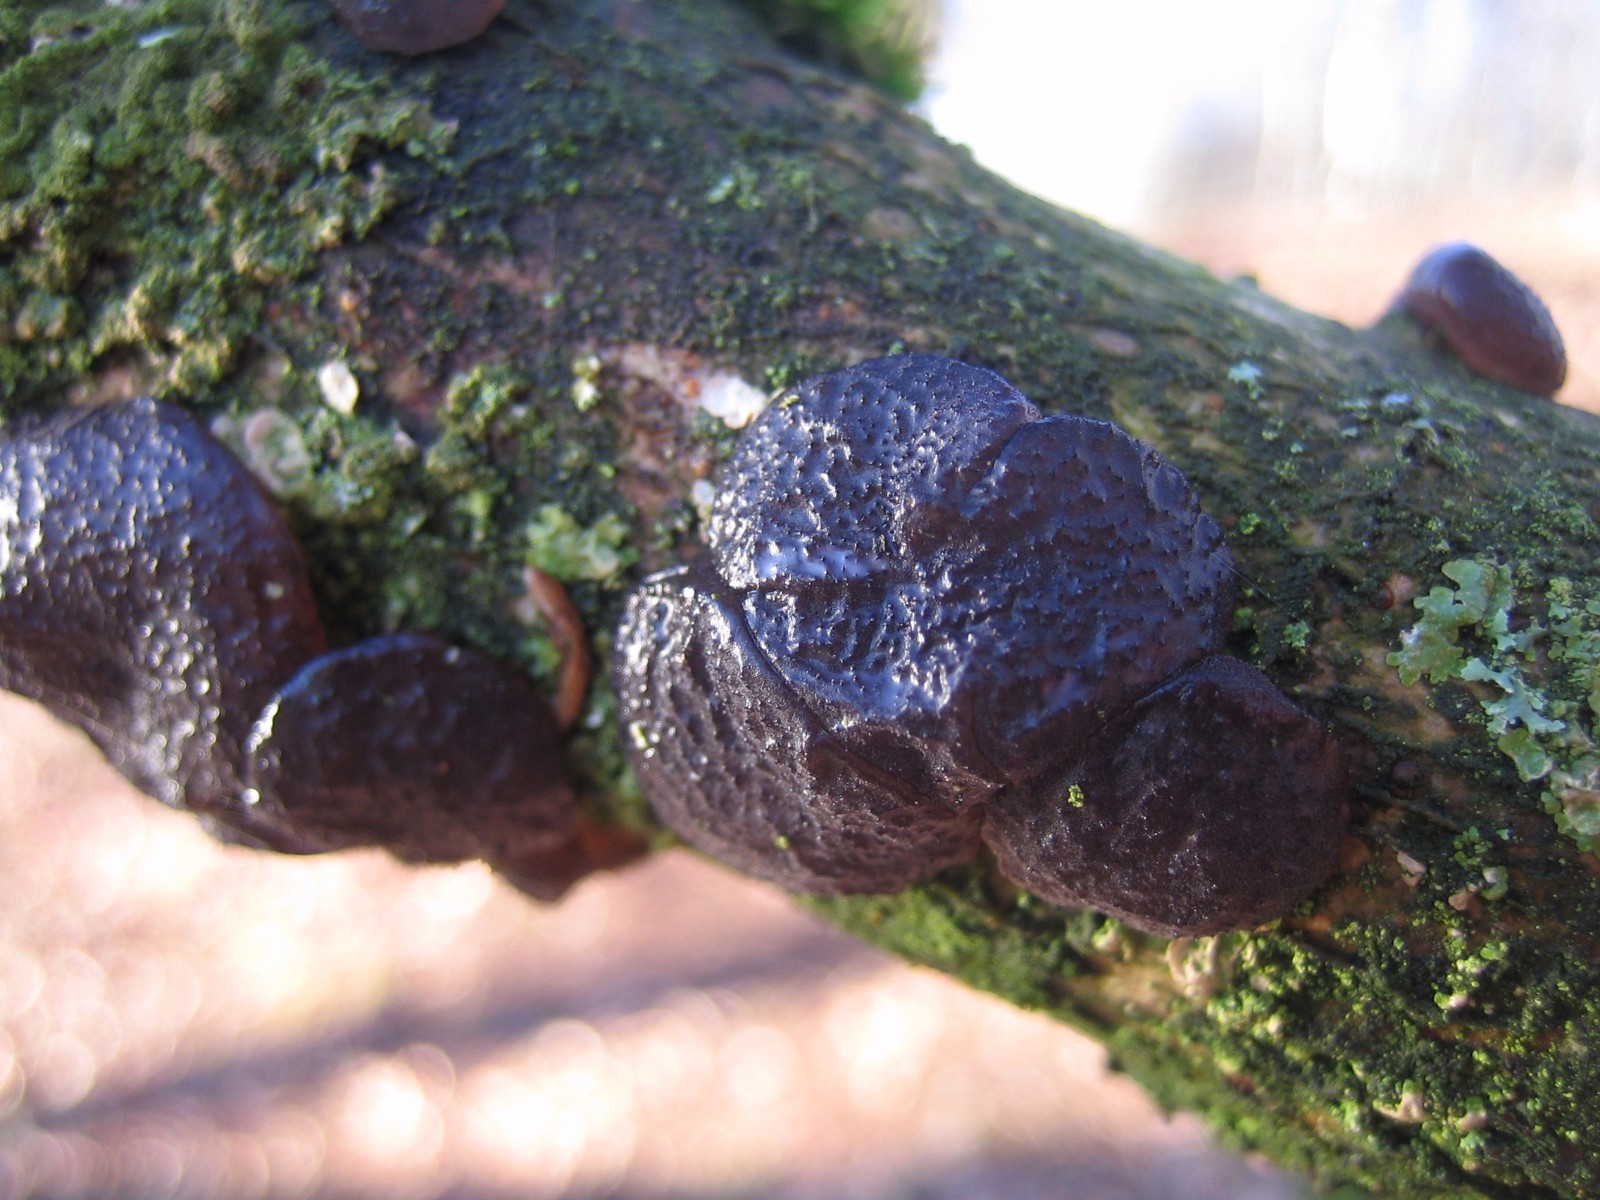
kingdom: Fungi
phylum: Basidiomycota
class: Agaricomycetes
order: Auriculariales
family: Auriculariaceae
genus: Exidia
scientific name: Exidia glandulosa
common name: ege-bævretop
